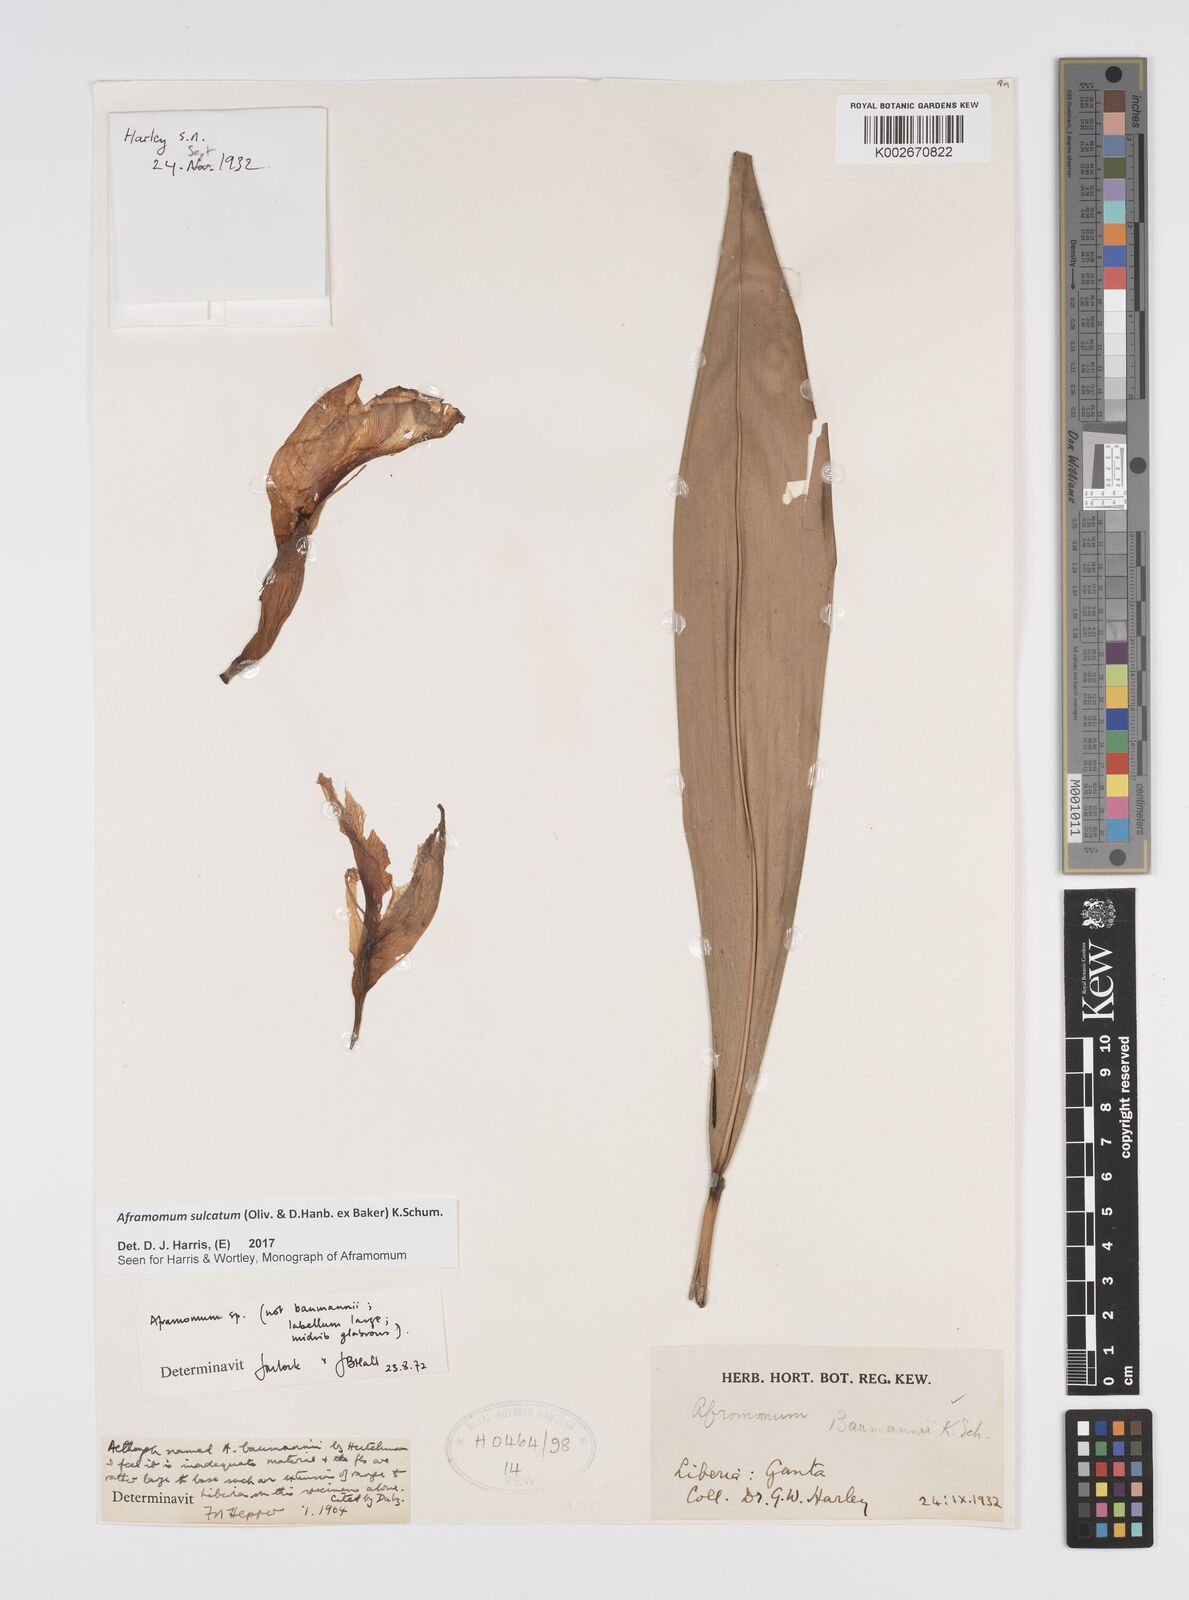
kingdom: Plantae
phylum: Tracheophyta
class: Liliopsida
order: Zingiberales
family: Zingiberaceae
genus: Aframomum
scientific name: Aframomum sulcatum
